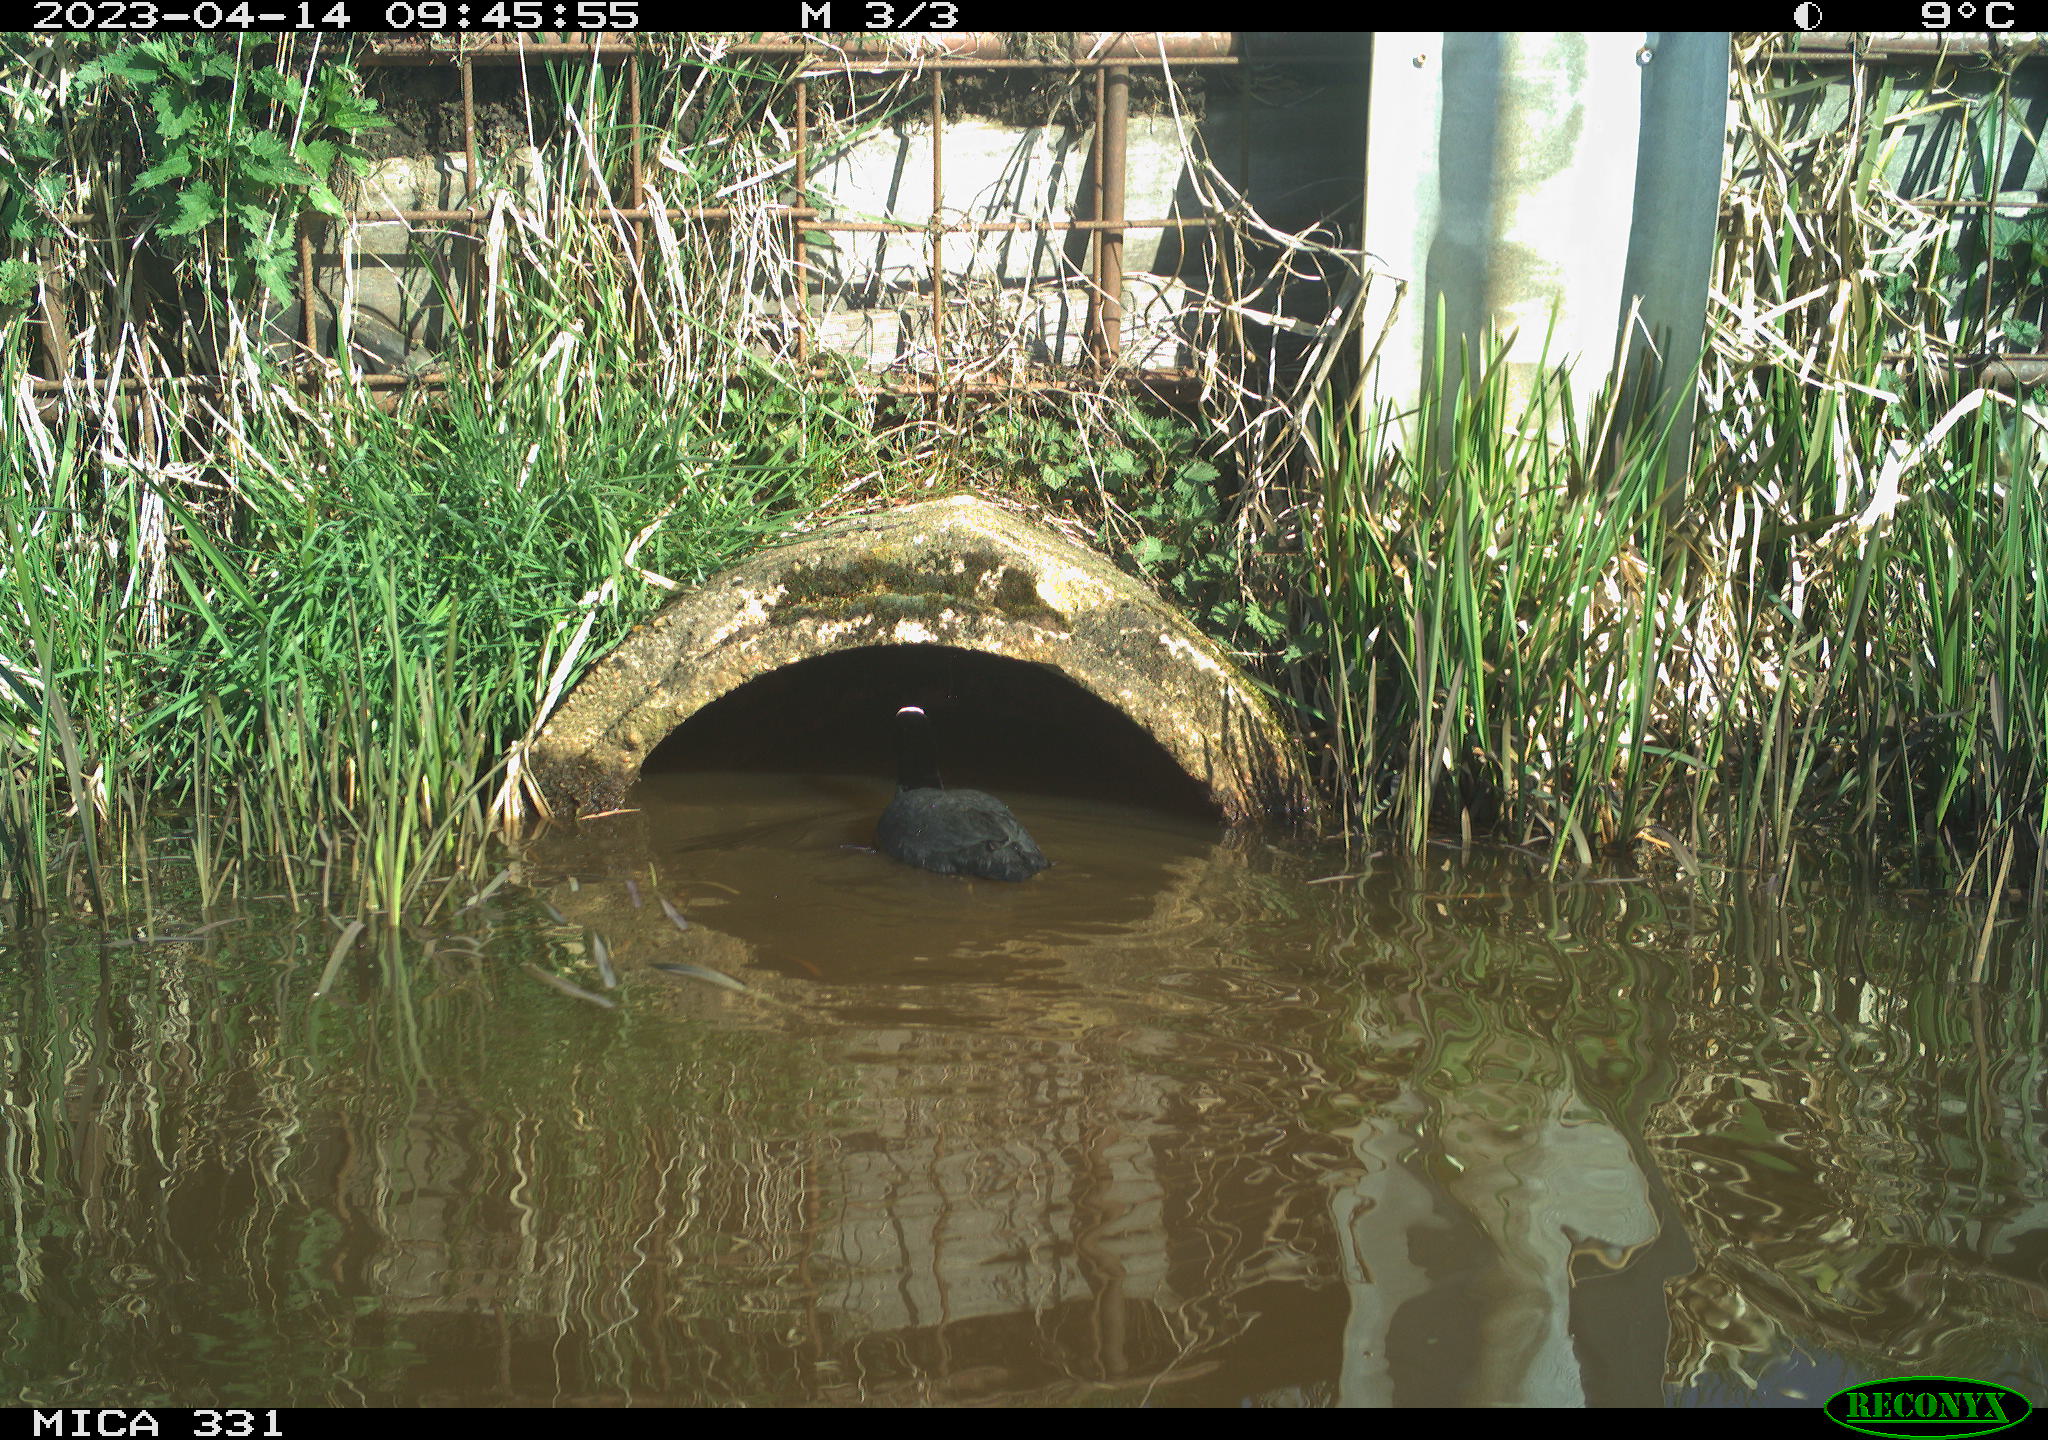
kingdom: Animalia
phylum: Chordata
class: Aves
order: Gruiformes
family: Rallidae
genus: Fulica
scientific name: Fulica atra
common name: Eurasian coot
